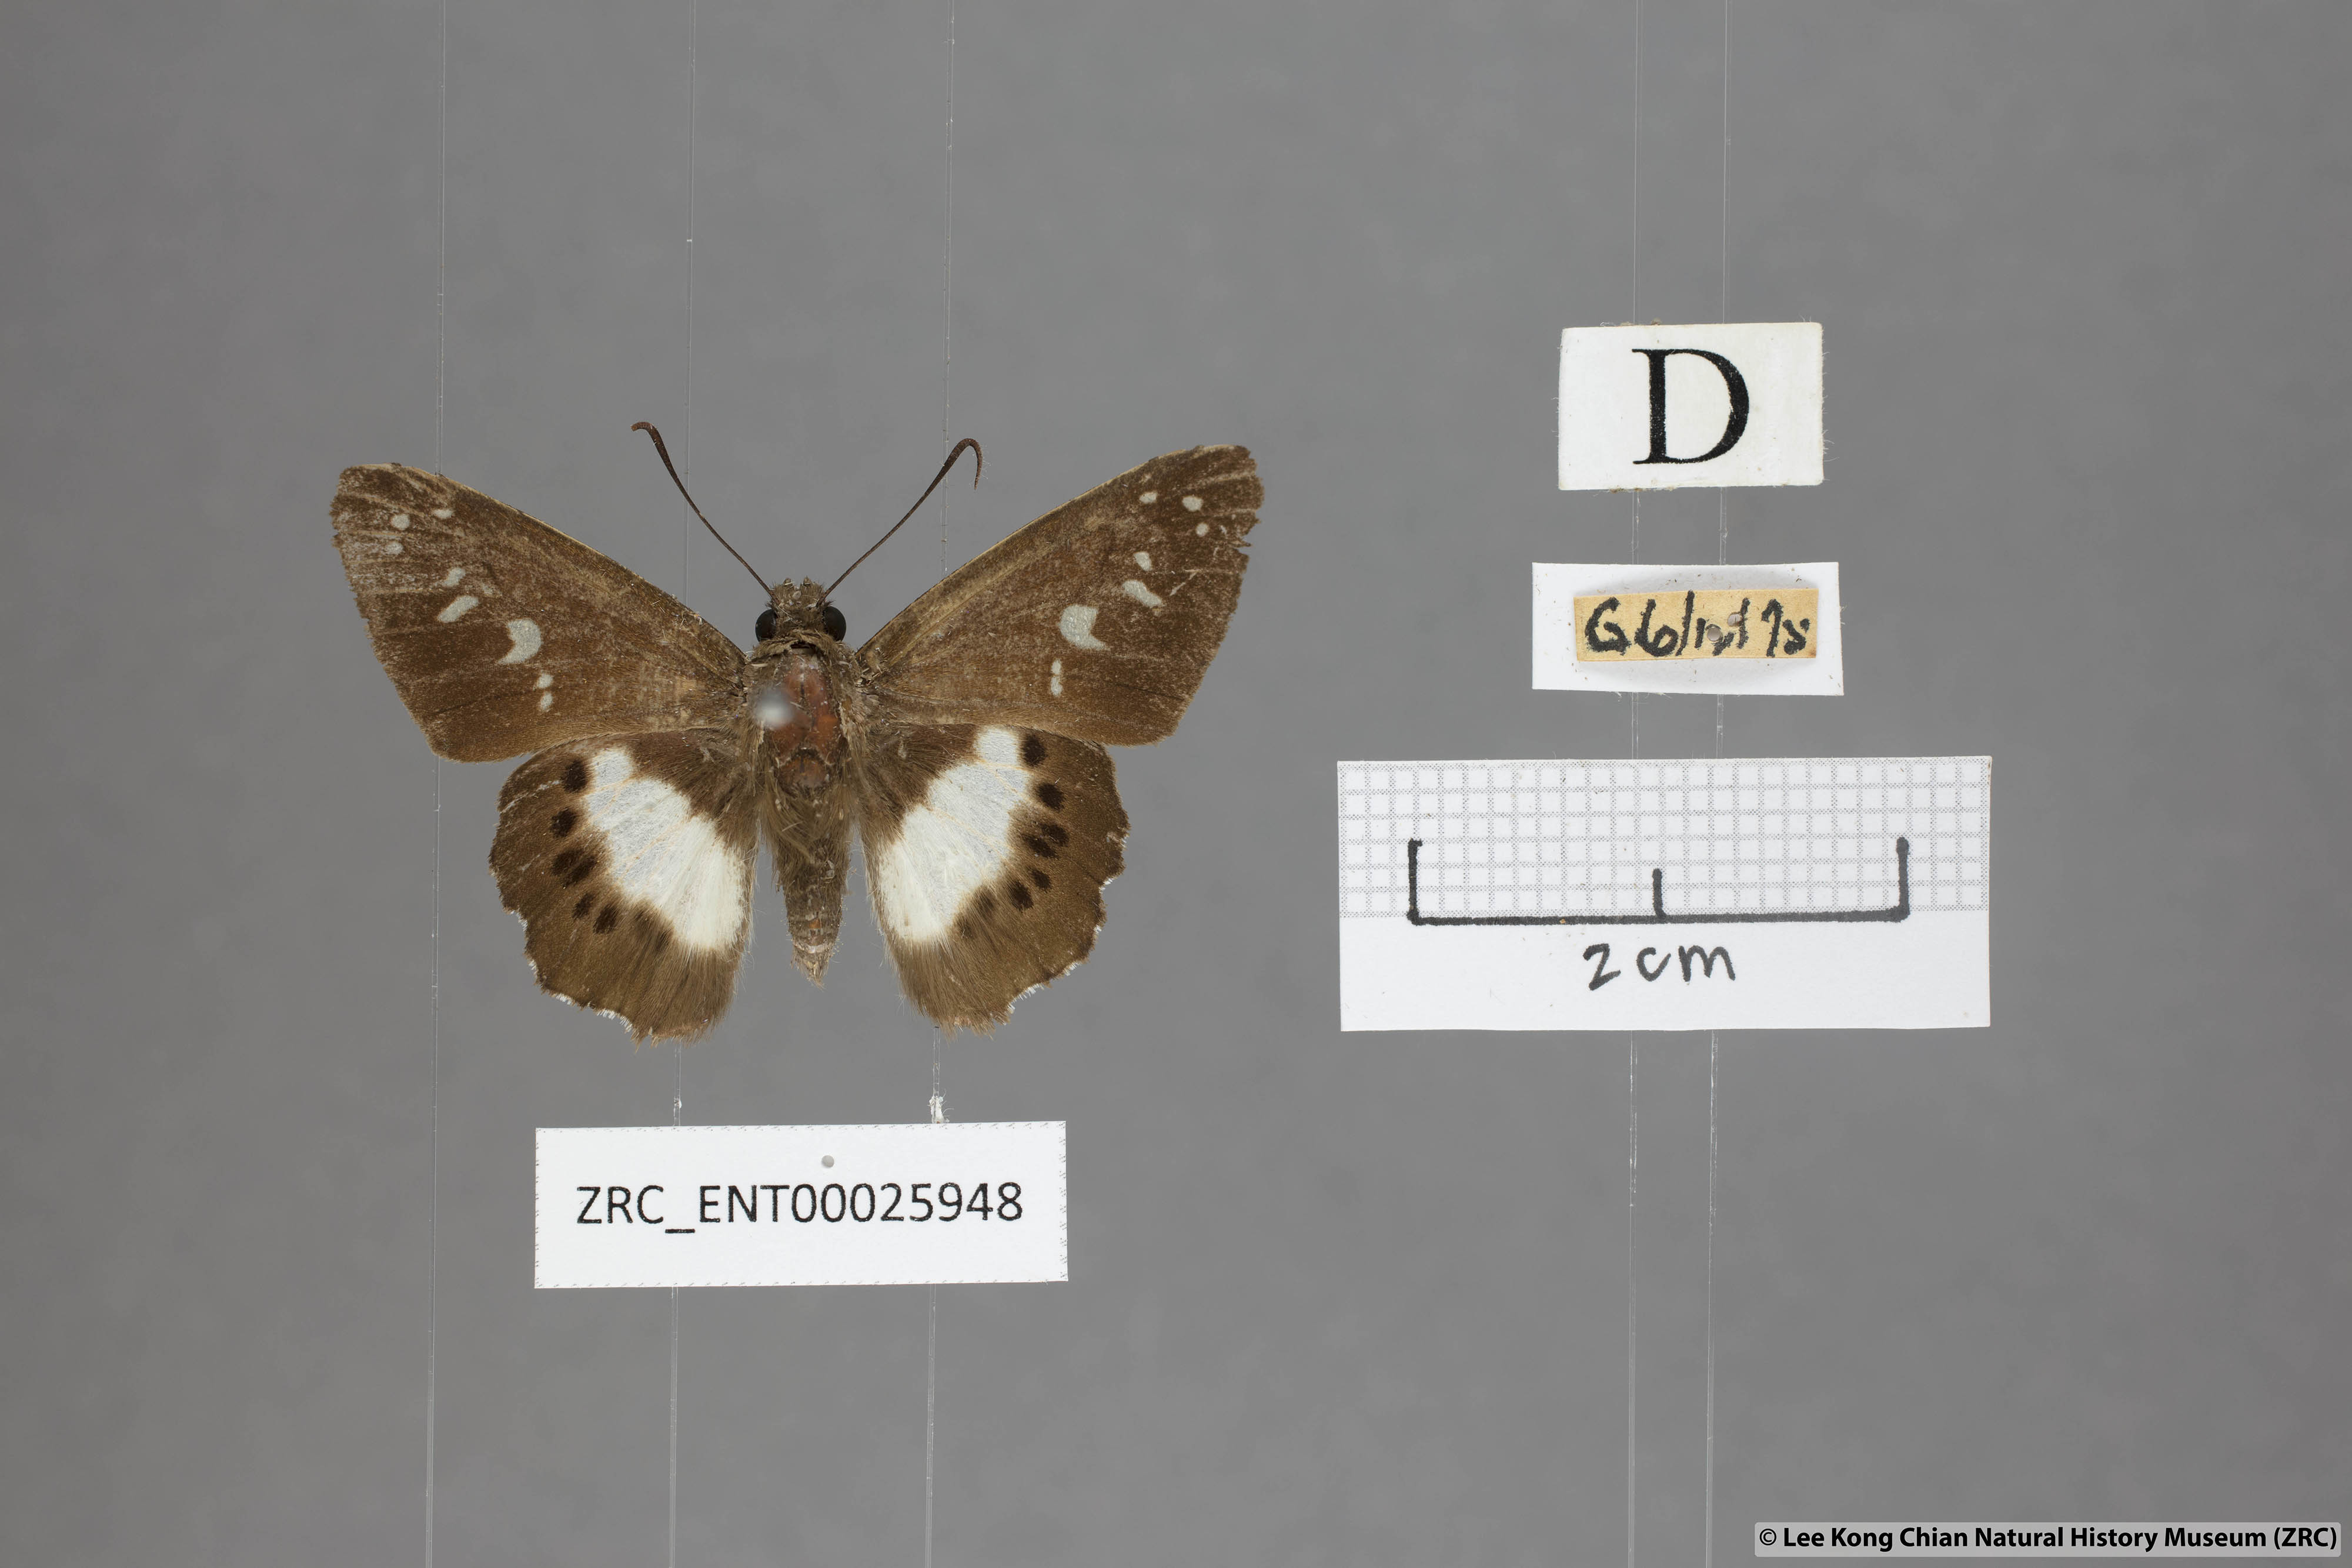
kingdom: Animalia
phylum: Arthropoda
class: Insecta
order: Lepidoptera
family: Hesperiidae
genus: Seseria
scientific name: Seseria affinis
